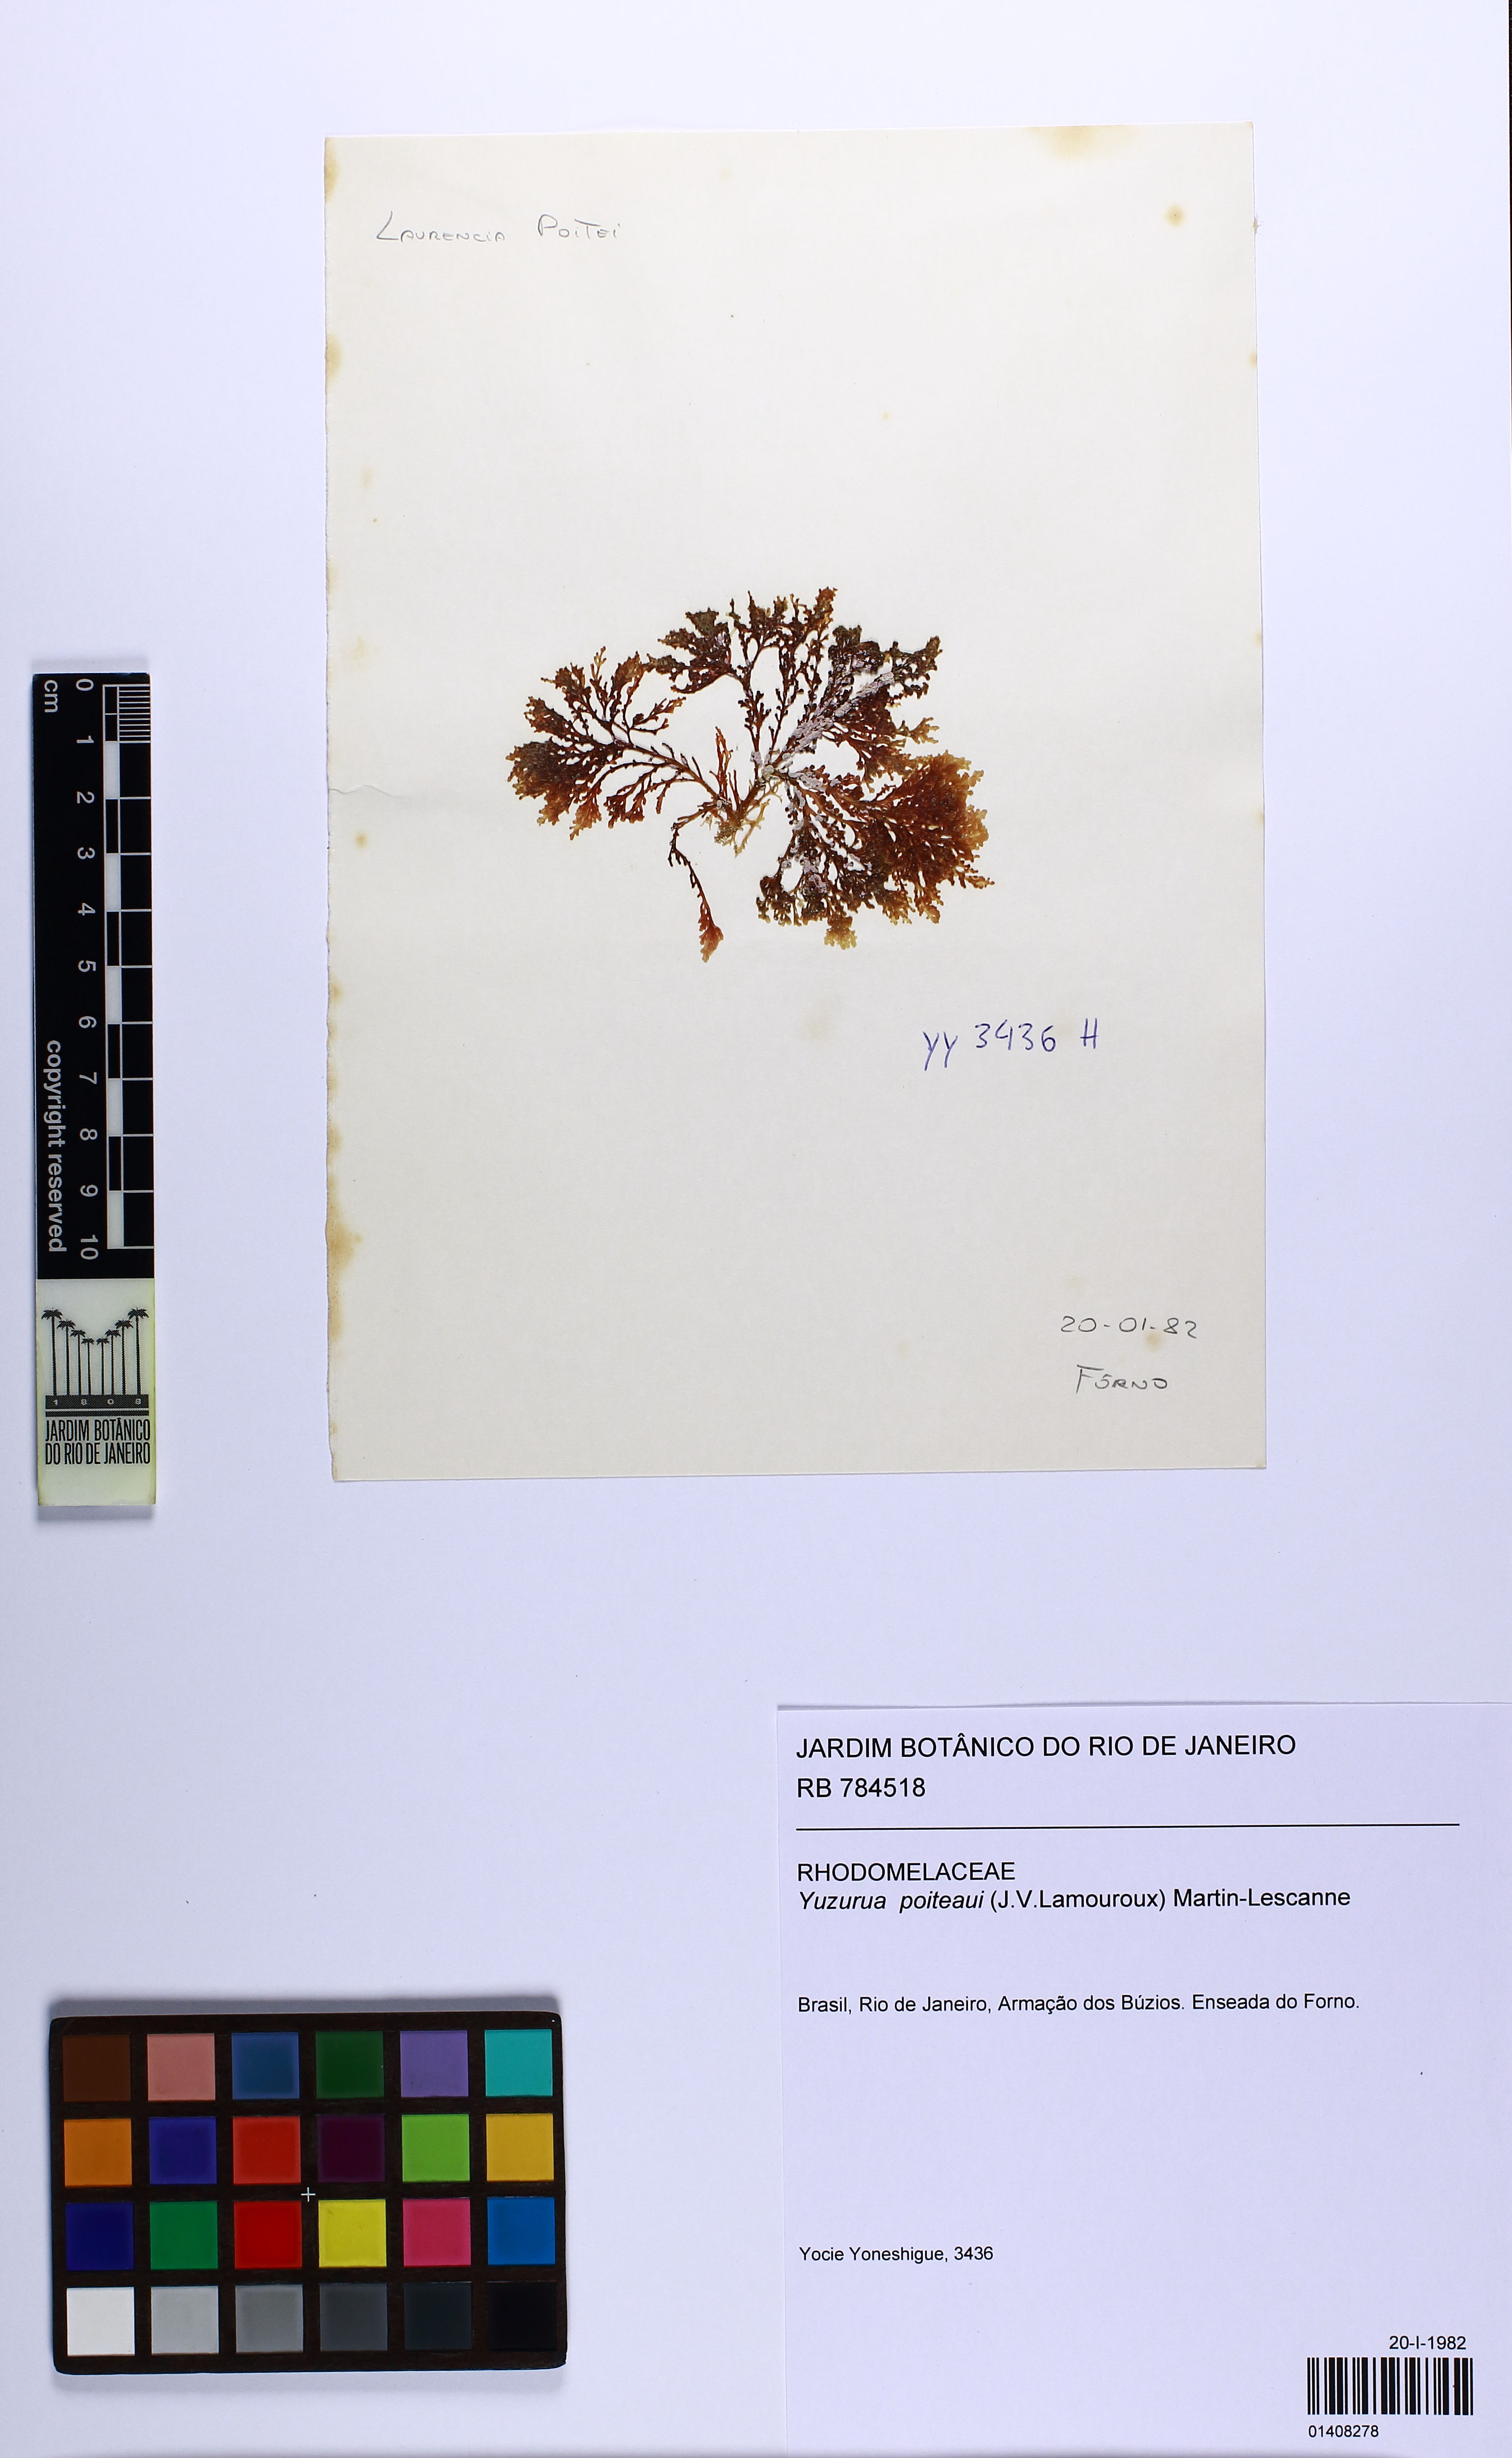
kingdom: Plantae
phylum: Rhodophyta
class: Florideophyceae
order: Ceramiales
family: Rhodomelaceae
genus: Yuzurua
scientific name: Yuzurua poiteaui
